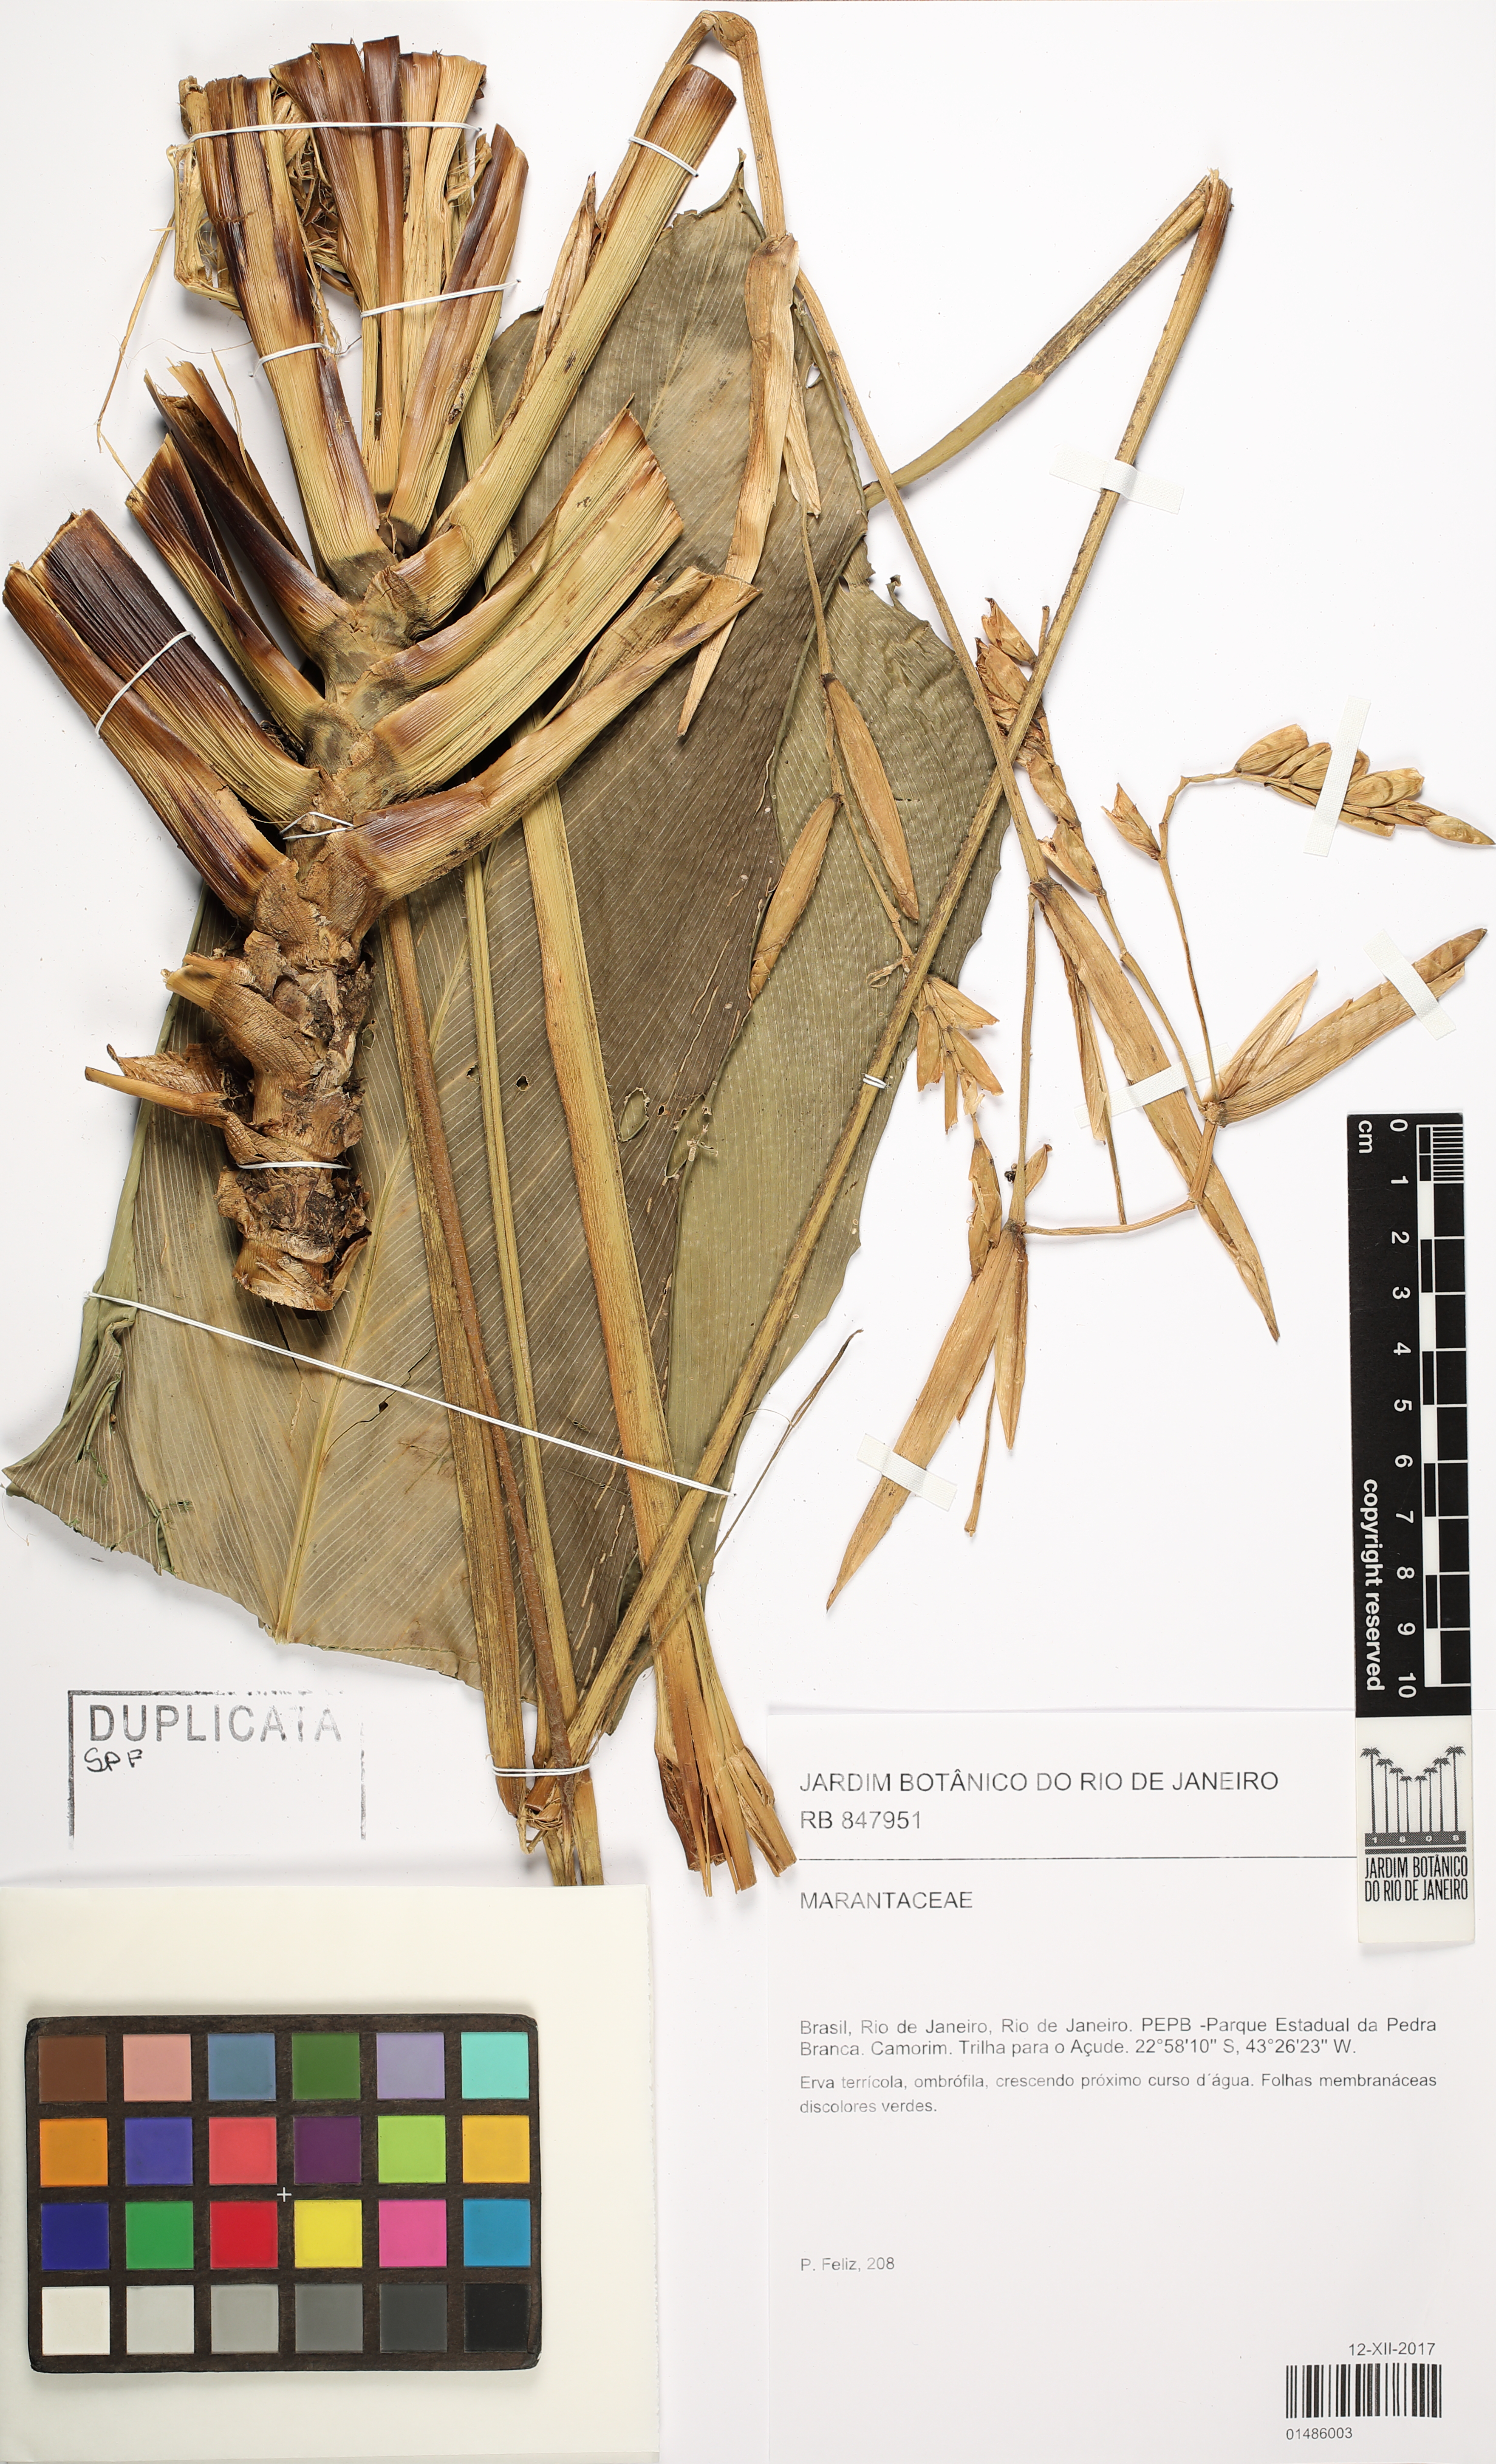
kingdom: Plantae
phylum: Tracheophyta
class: Liliopsida
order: Zingiberales
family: Marantaceae
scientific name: Marantaceae
